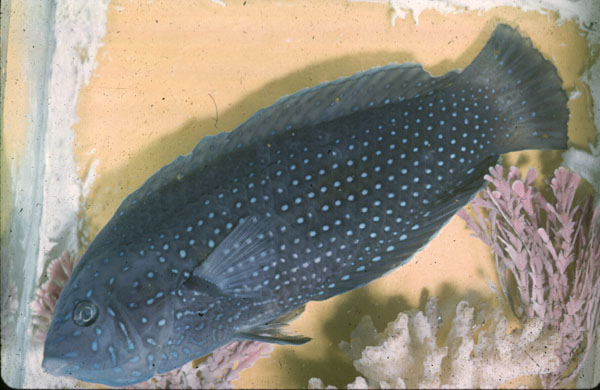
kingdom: Animalia
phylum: Chordata
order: Perciformes
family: Labridae
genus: Anampses
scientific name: Anampses caeruleopunctatus
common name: Bluespotted wrasse
